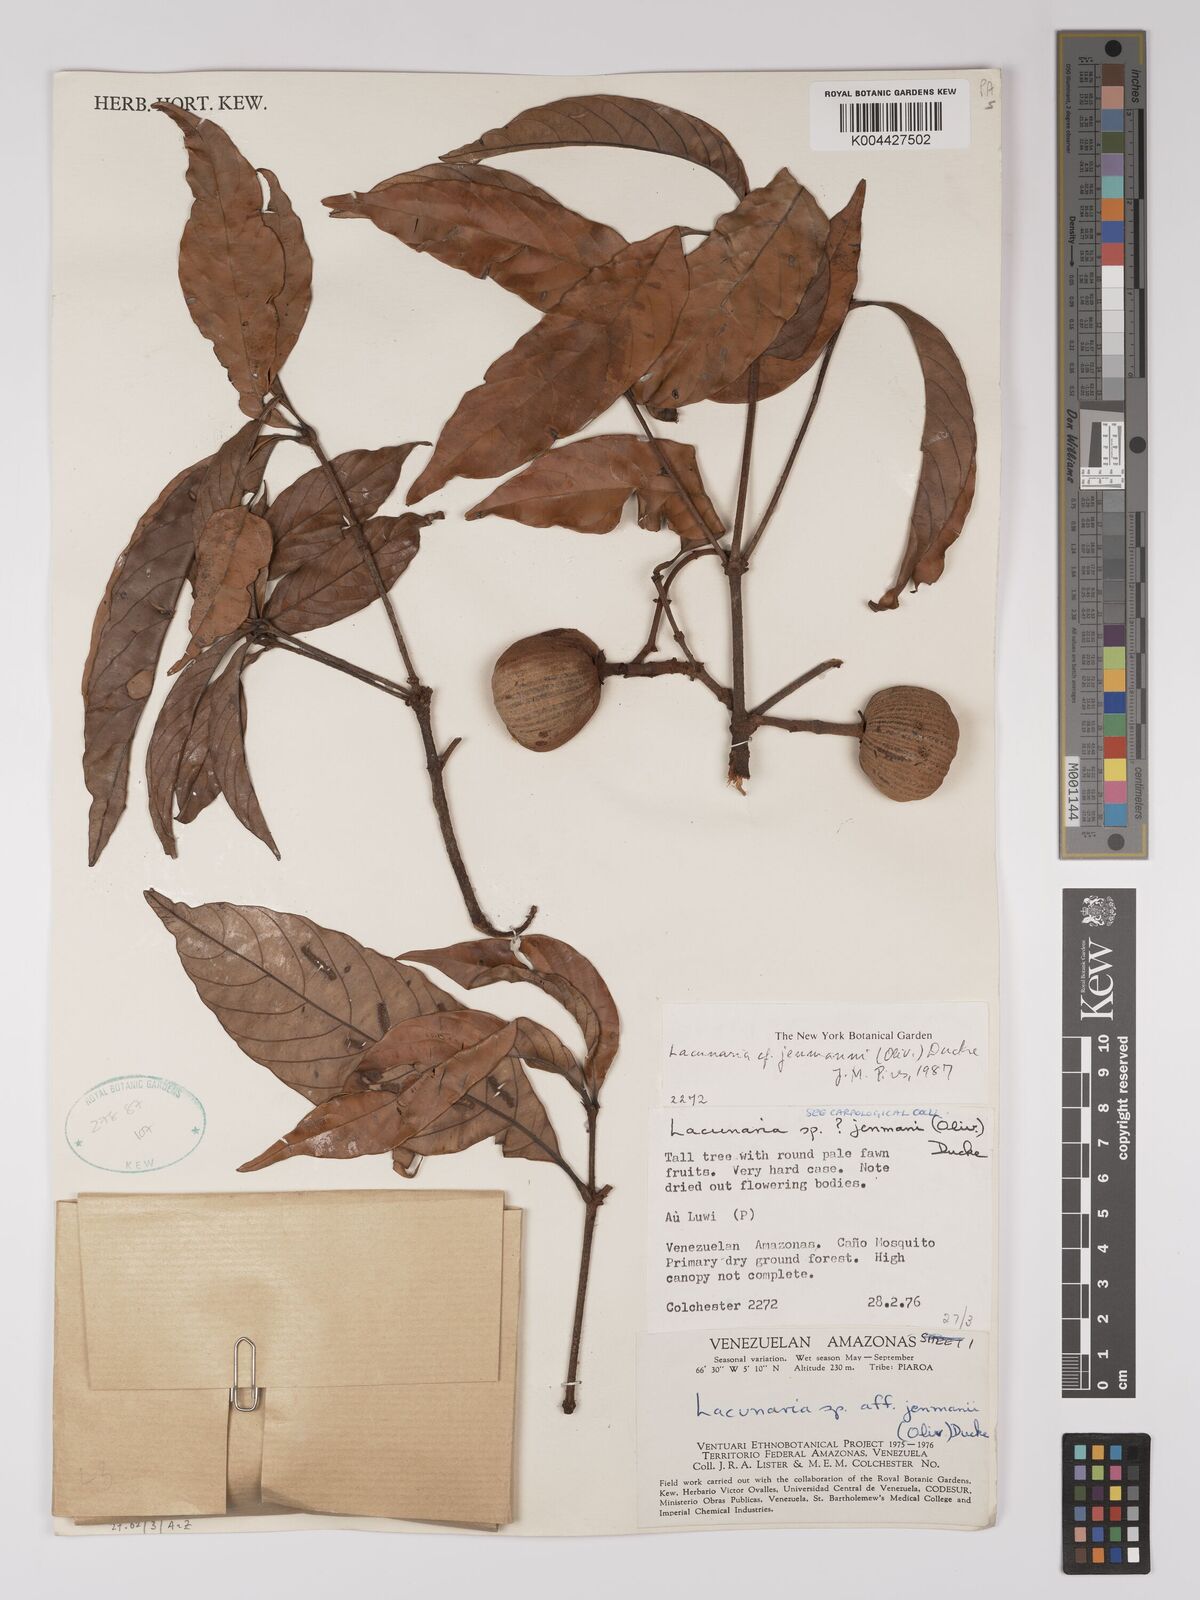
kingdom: Plantae
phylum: Tracheophyta
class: Magnoliopsida
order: Malpighiales
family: Quiinaceae
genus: Lacunaria
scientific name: Lacunaria jenmanii
